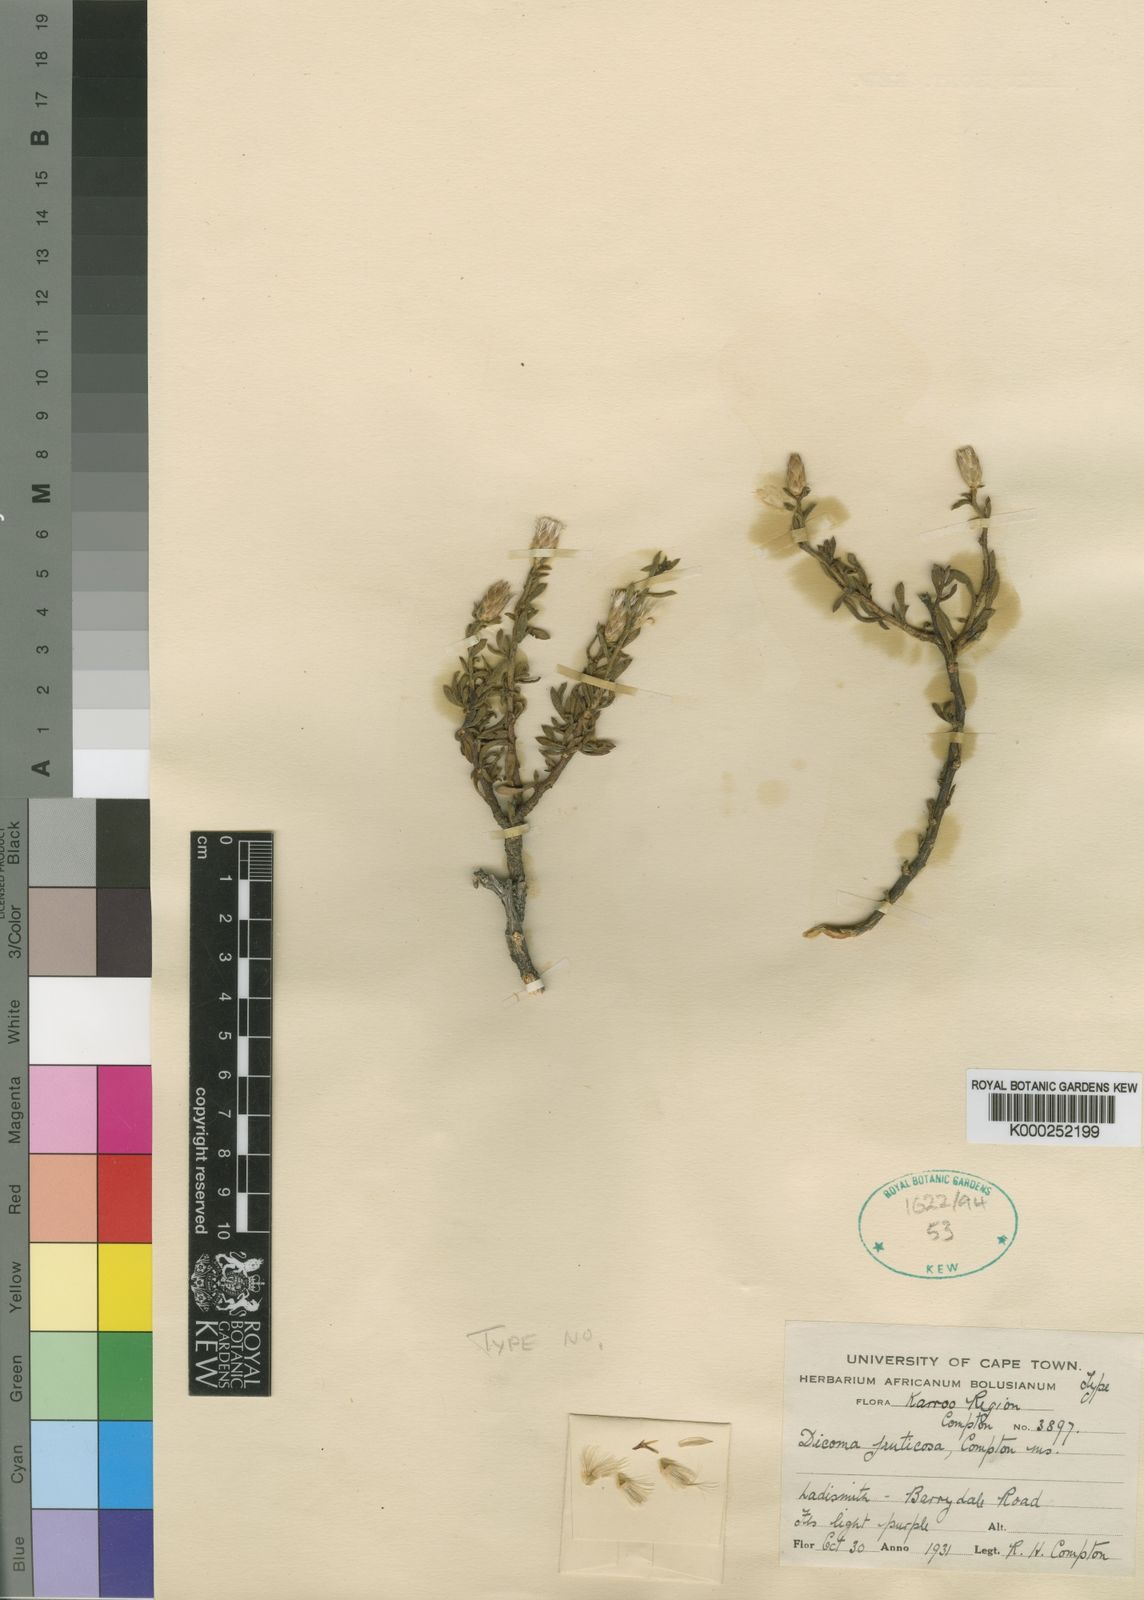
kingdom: Plantae
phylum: Tracheophyta
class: Magnoliopsida
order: Asterales
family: Asteraceae
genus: Dicoma
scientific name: Dicoma fruticosa
